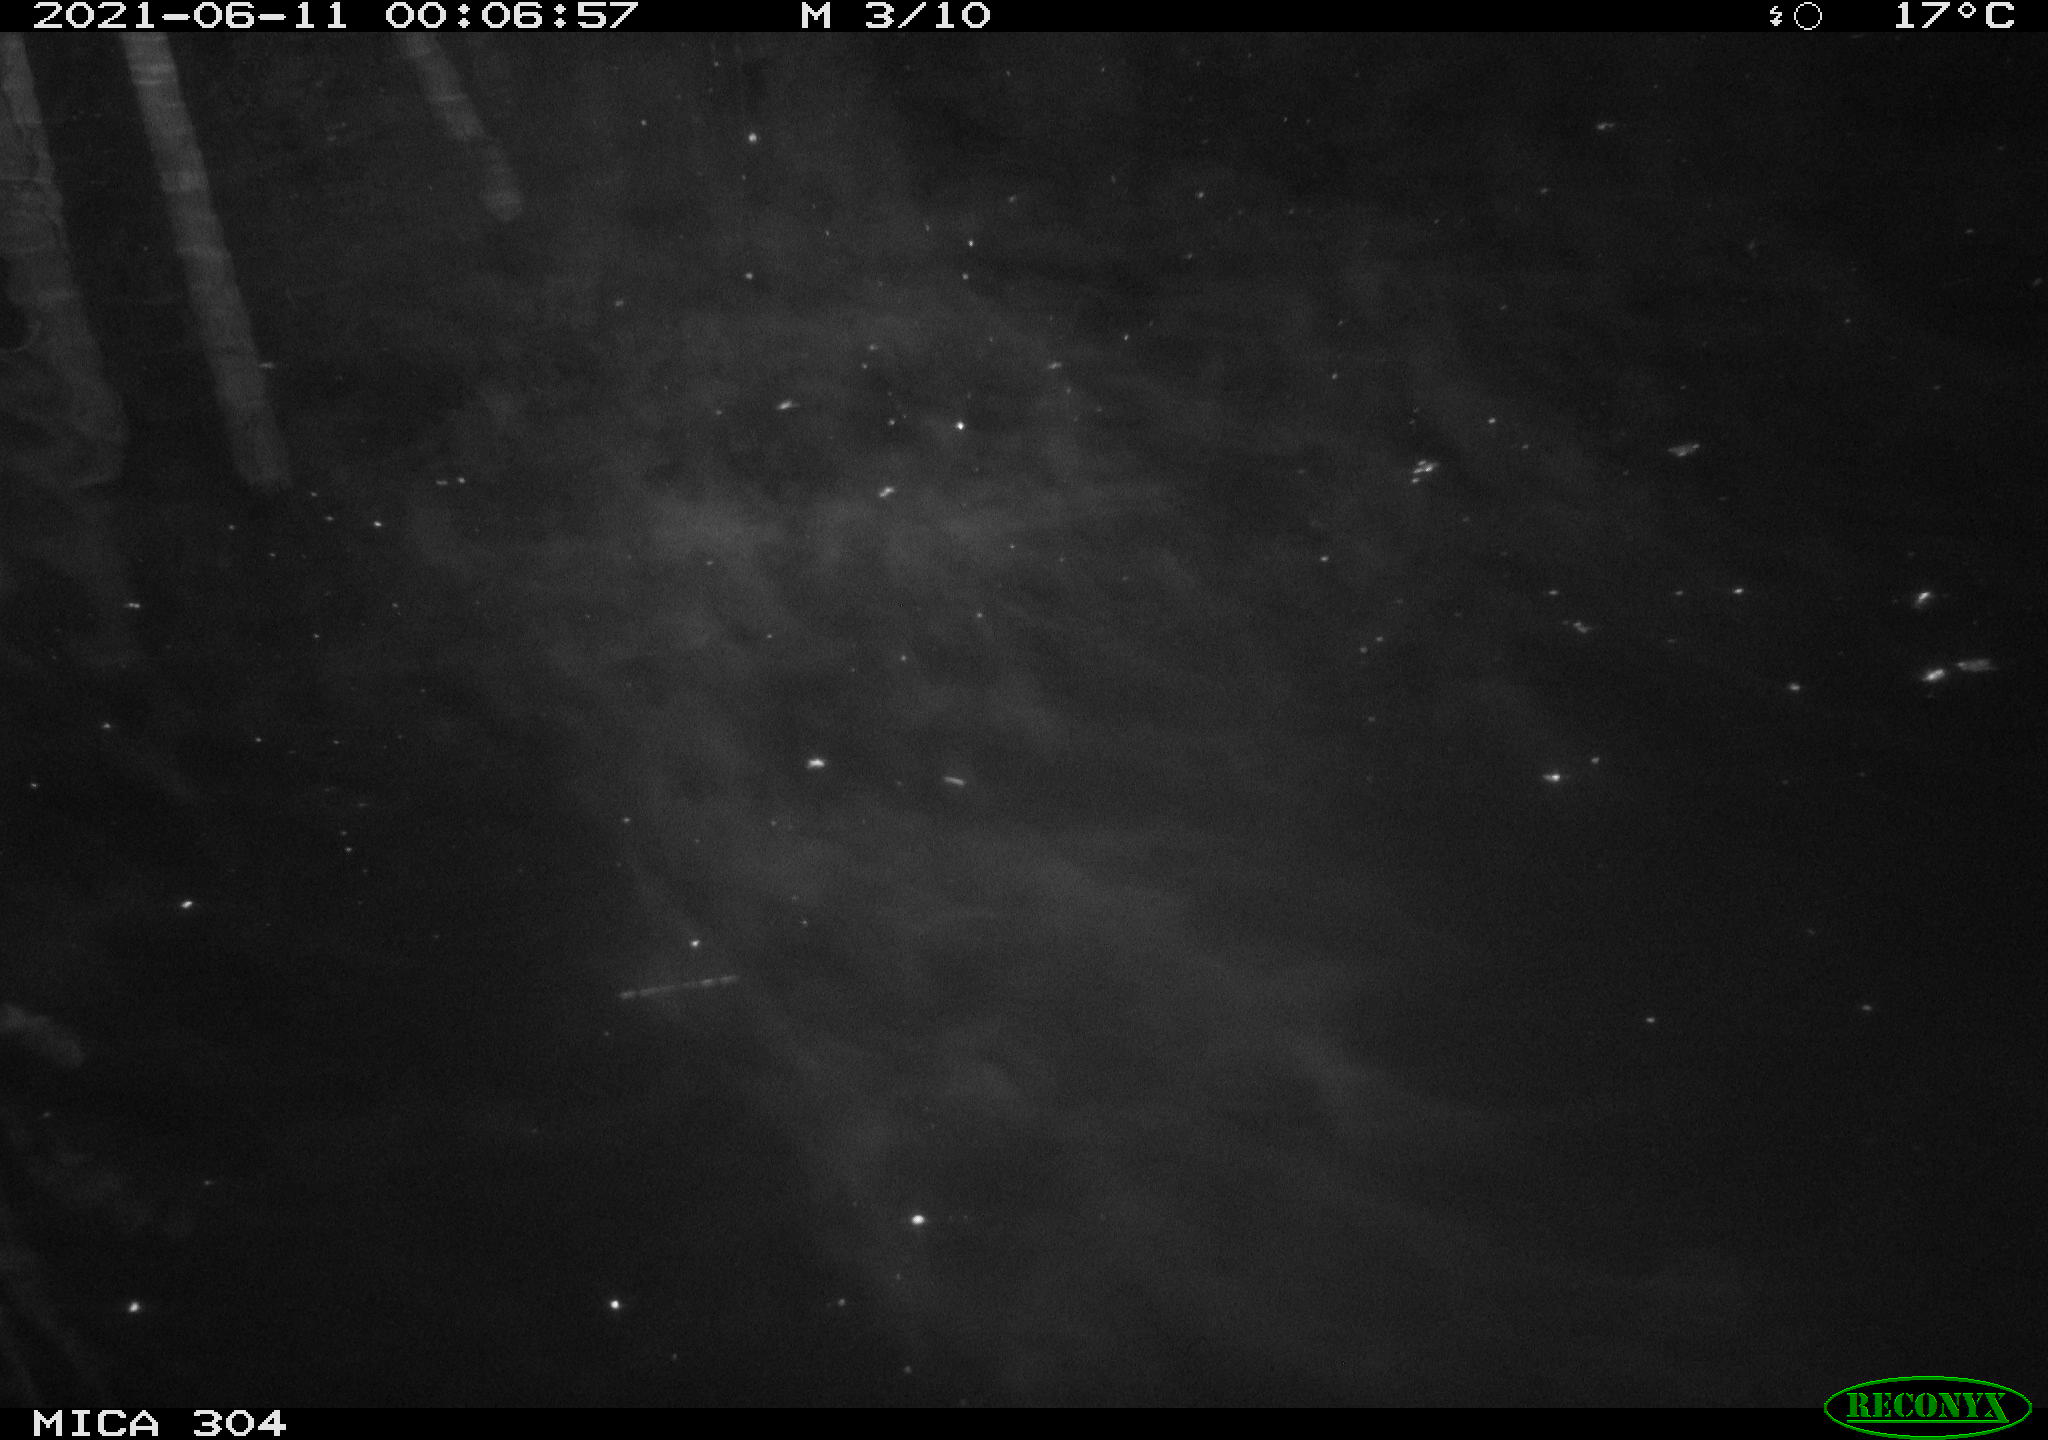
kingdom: Animalia
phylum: Chordata
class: Aves
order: Anseriformes
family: Anatidae
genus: Anas
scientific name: Anas platyrhynchos
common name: Mallard
